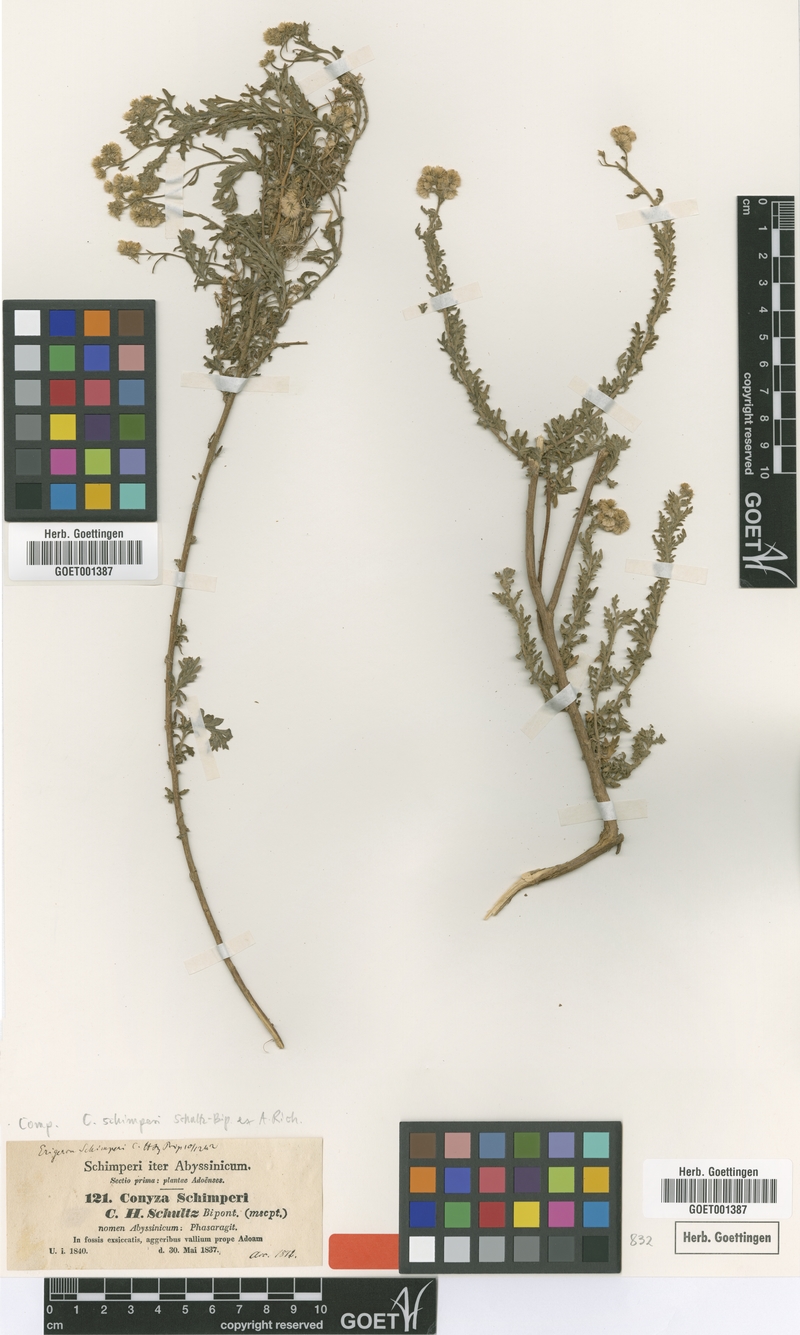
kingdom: Plantae
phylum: Tracheophyta
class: Magnoliopsida
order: Asterales
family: Asteraceae
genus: Conyza
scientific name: Conyza schimperi
